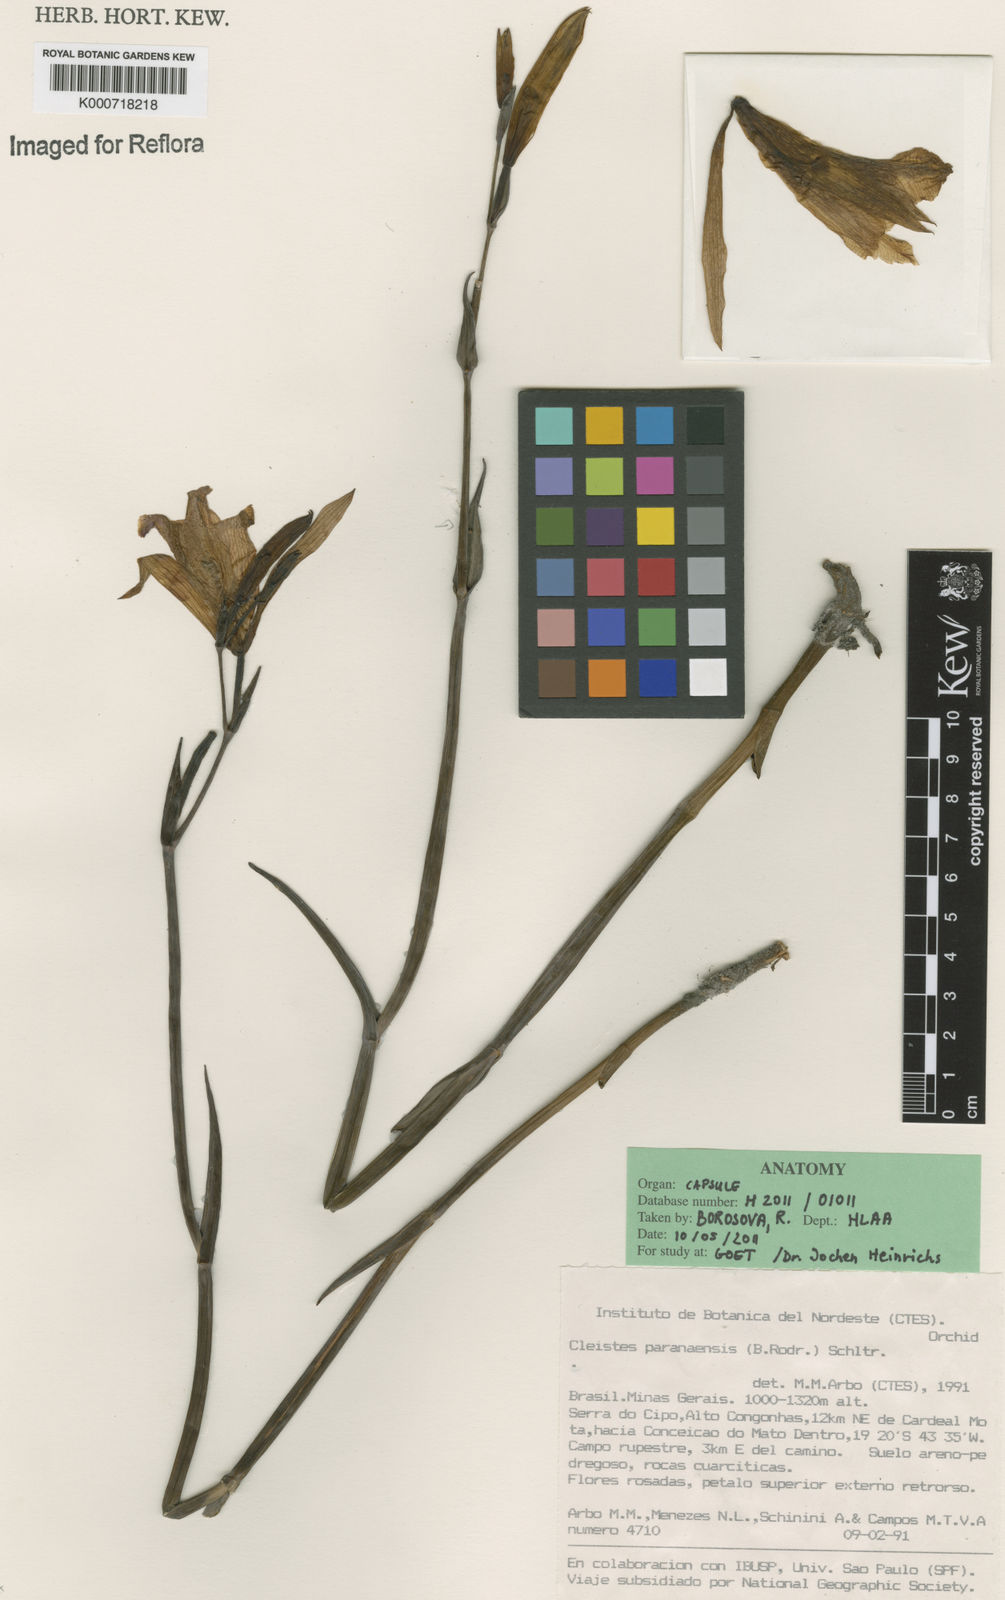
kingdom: Plantae
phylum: Tracheophyta
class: Liliopsida
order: Asparagales
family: Orchidaceae
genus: Cleistes
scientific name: Cleistes paranaensis
